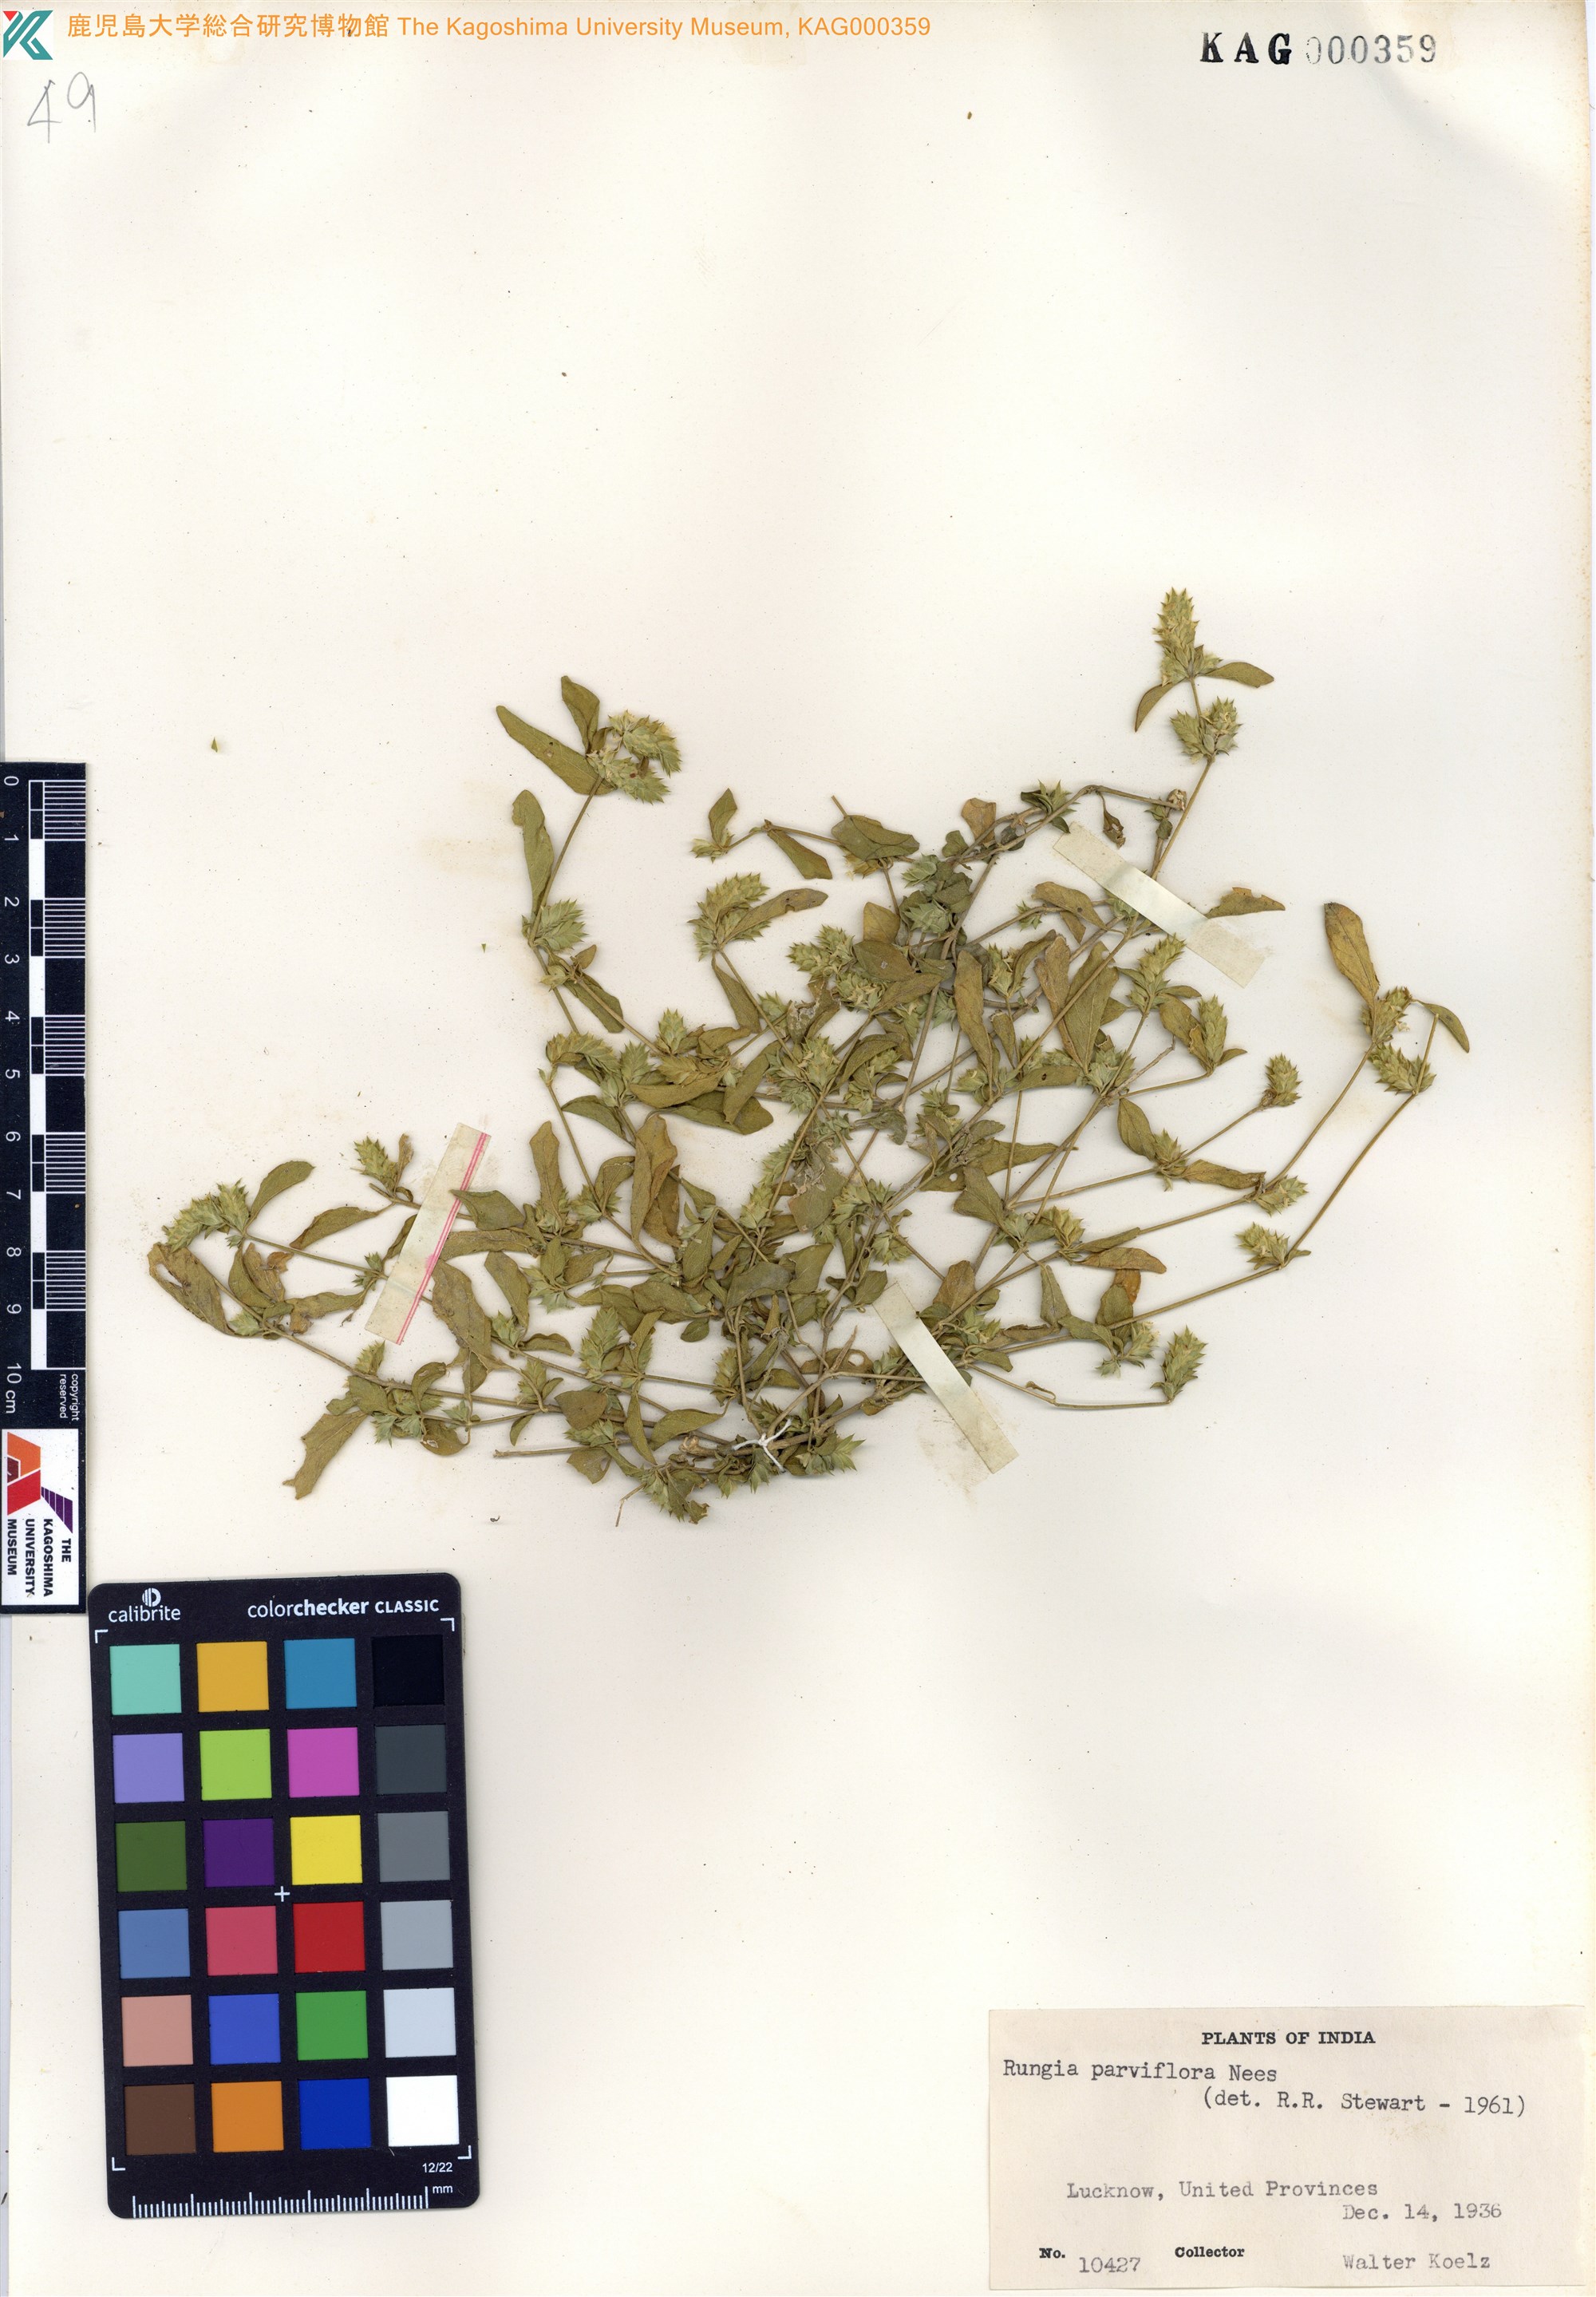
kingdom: Plantae
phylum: Tracheophyta
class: Magnoliopsida
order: Lamiales
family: Acanthaceae
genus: Rungia
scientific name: Rungia parviflora
